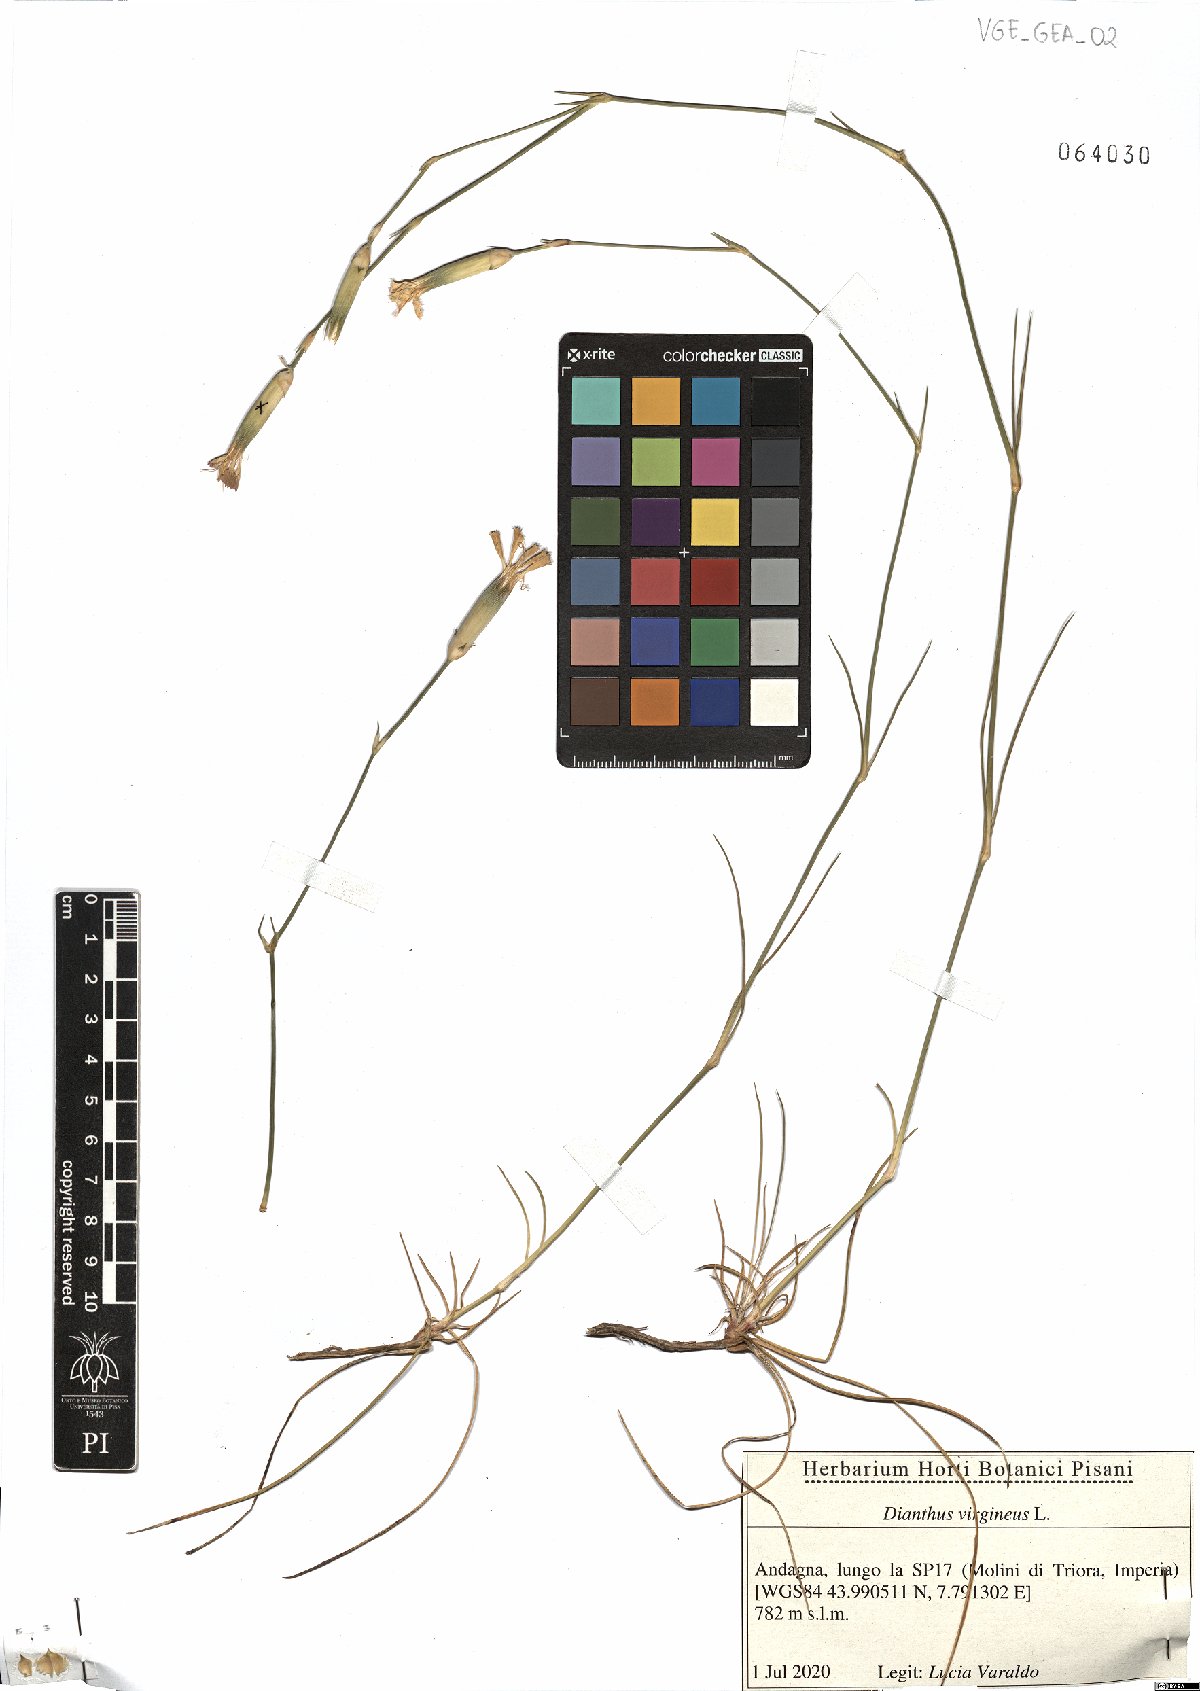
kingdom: Plantae
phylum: Tracheophyta
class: Magnoliopsida
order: Caryophyllales
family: Caryophyllaceae
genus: Dianthus
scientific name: Dianthus virgineus
